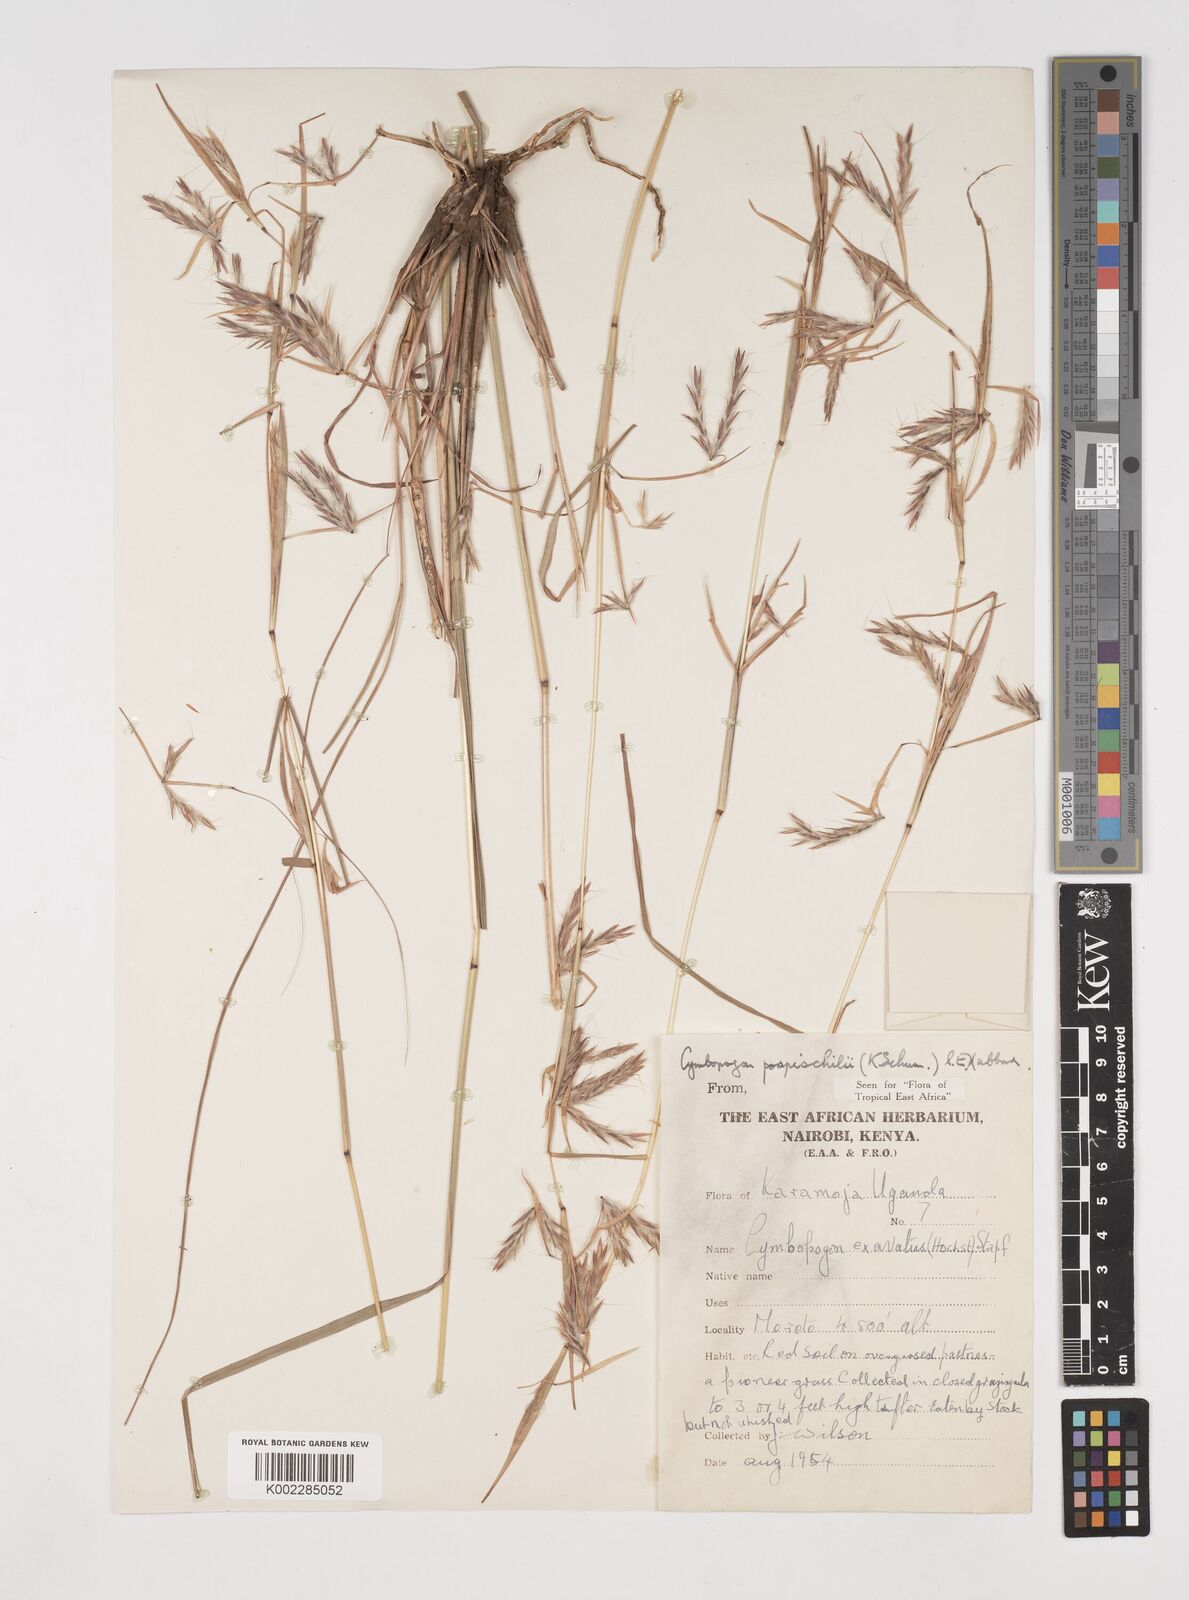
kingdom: Plantae
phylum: Tracheophyta
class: Liliopsida
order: Poales
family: Poaceae
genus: Cymbopogon
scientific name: Cymbopogon pospischilii
